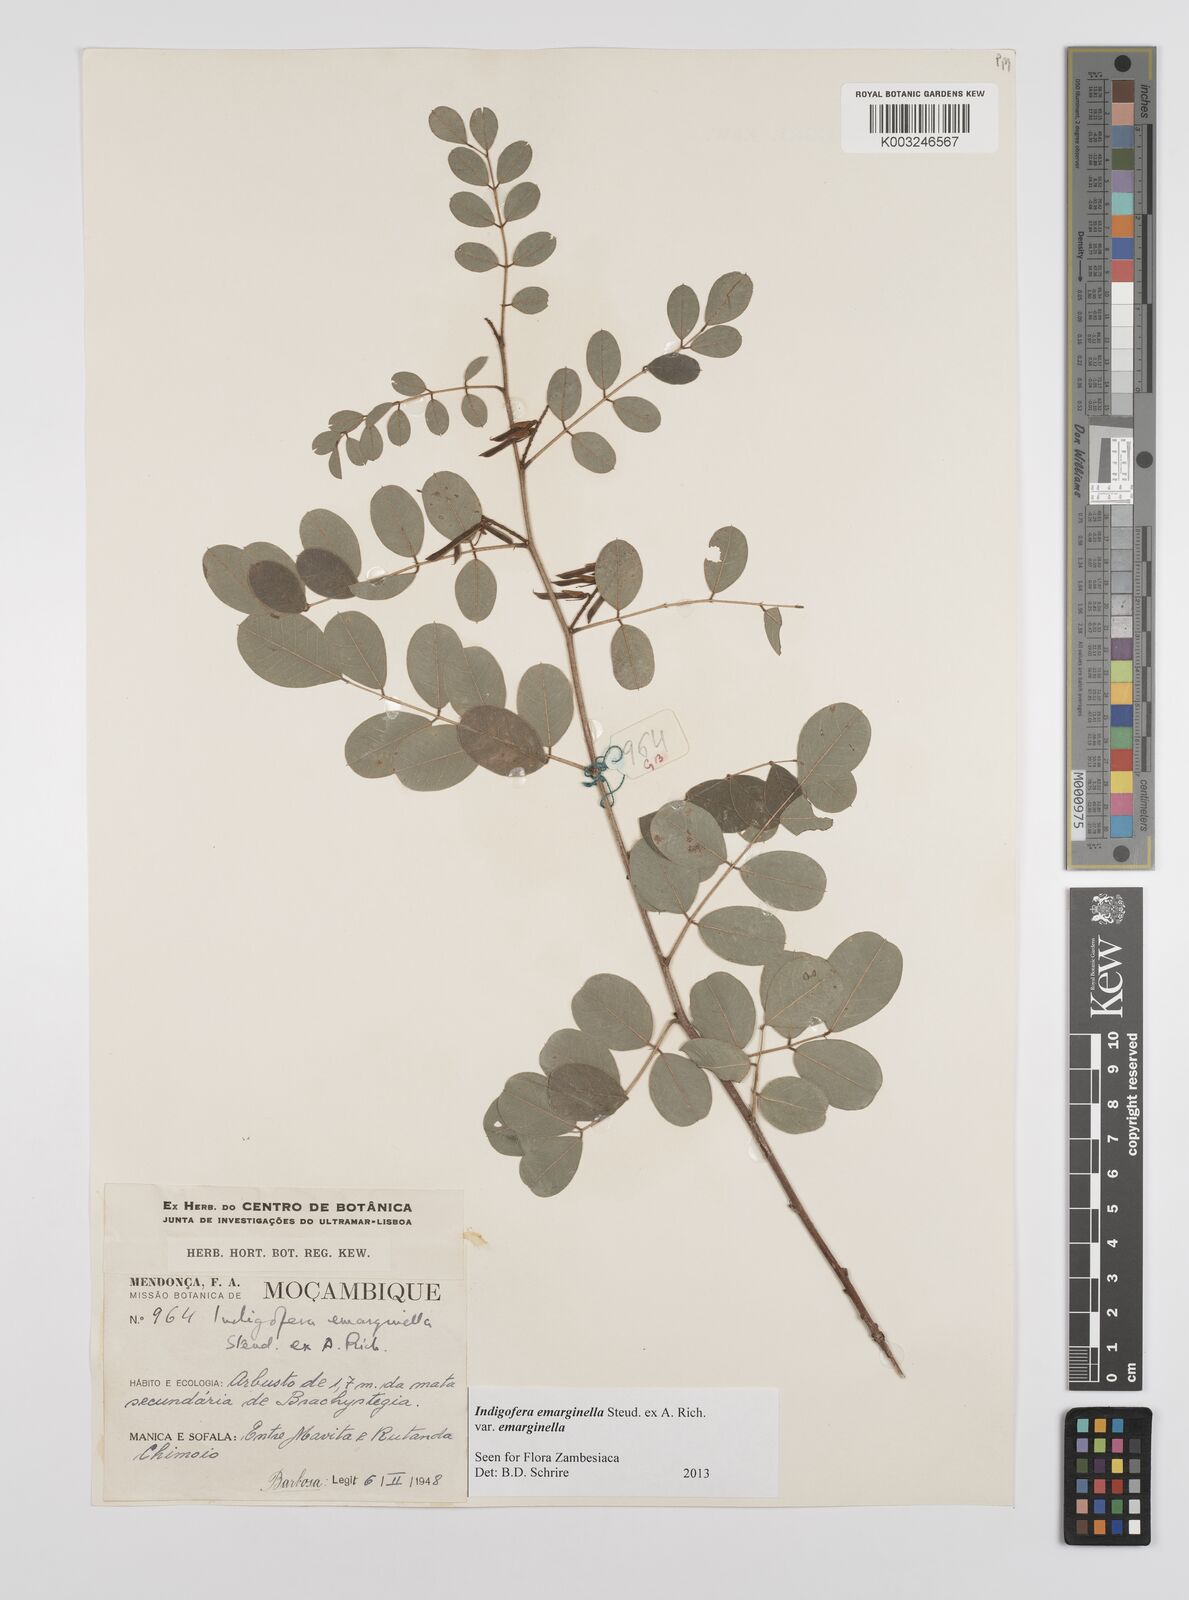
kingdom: Plantae
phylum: Tracheophyta
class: Magnoliopsida
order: Fabales
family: Fabaceae
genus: Indigofera
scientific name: Indigofera emarginella
